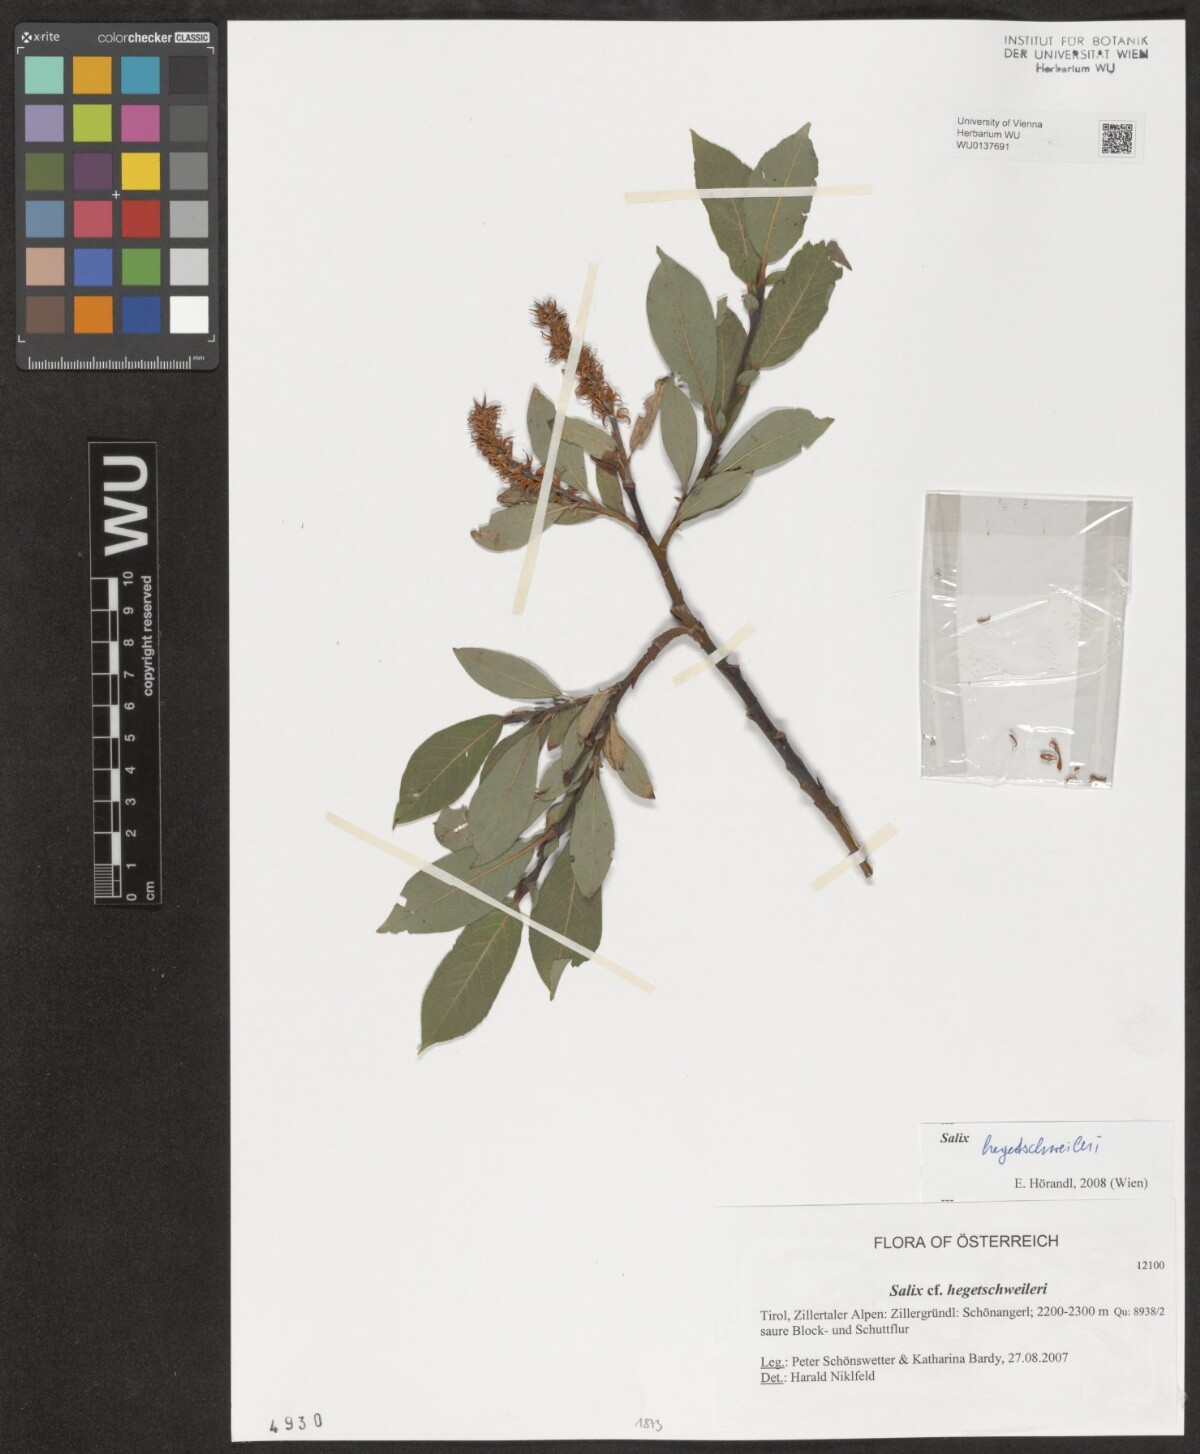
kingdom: Plantae
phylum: Tracheophyta
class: Magnoliopsida
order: Malpighiales
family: Salicaceae
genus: Salix
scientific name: Salix hegetschweileri
